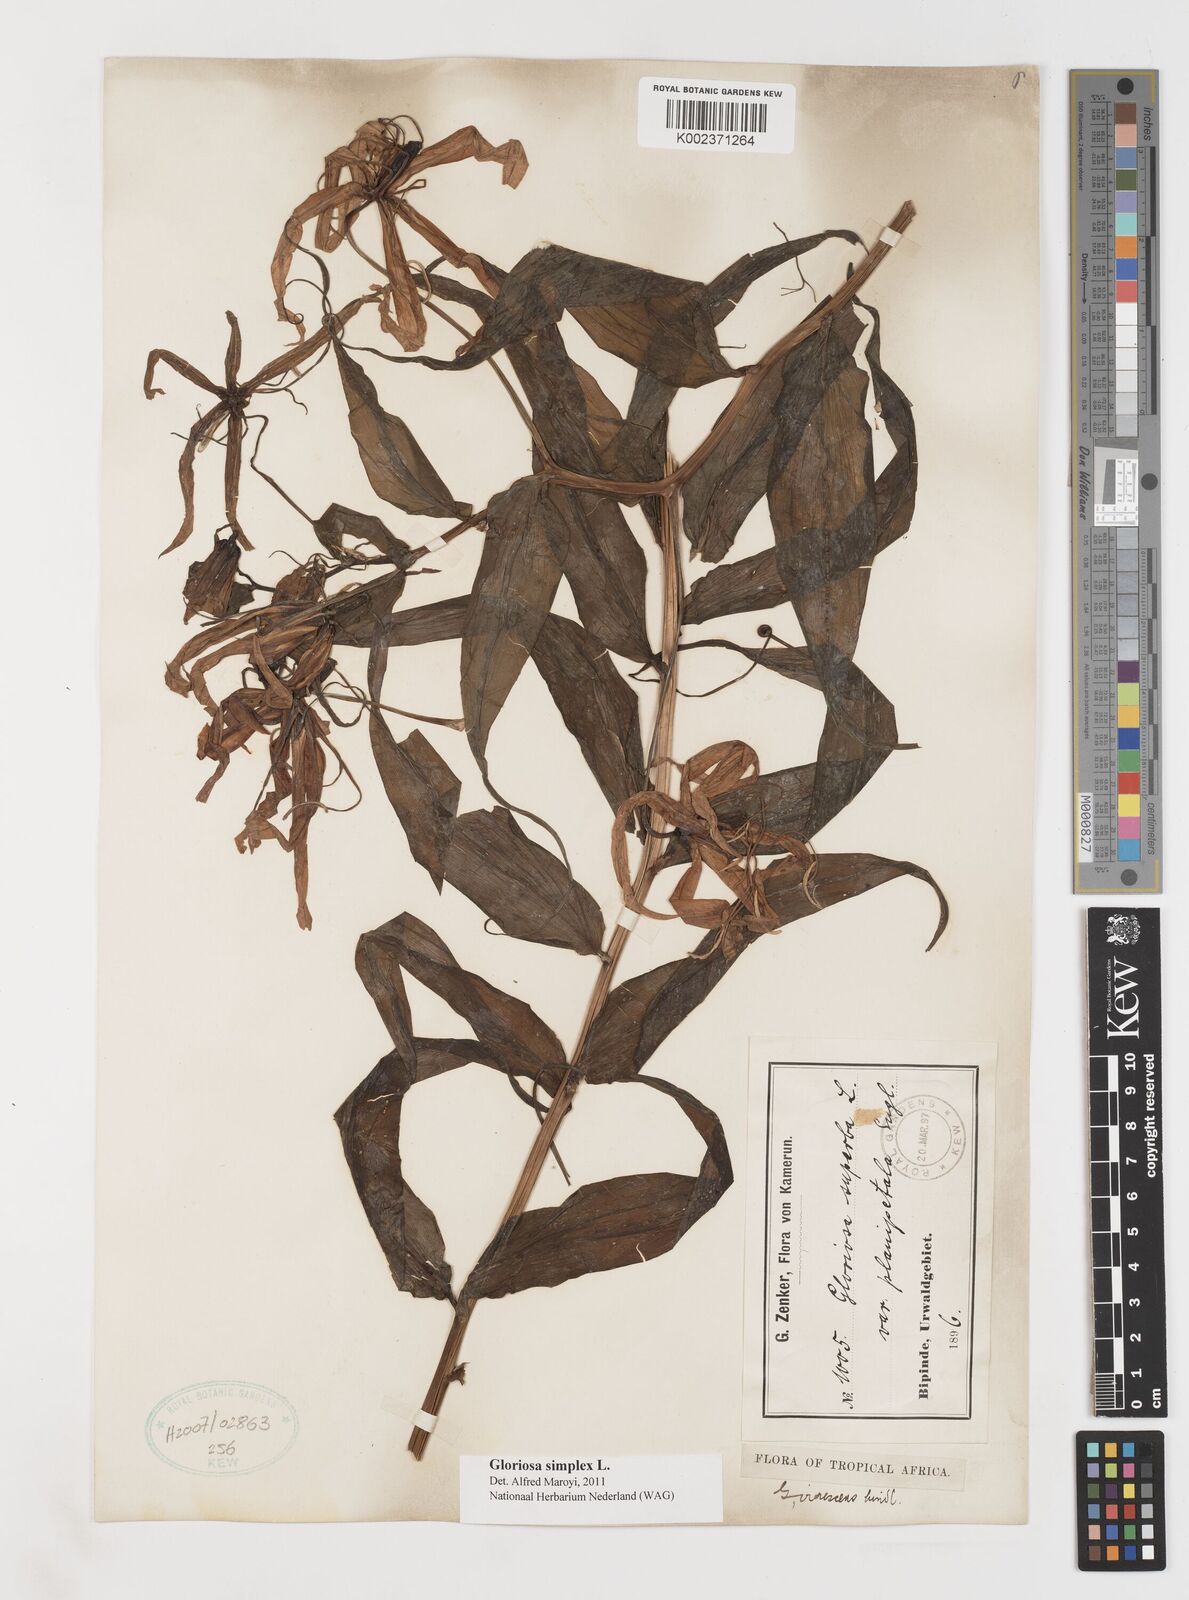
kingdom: Plantae
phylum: Tracheophyta
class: Liliopsida
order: Liliales
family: Colchicaceae
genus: Gloriosa
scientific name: Gloriosa simplex
